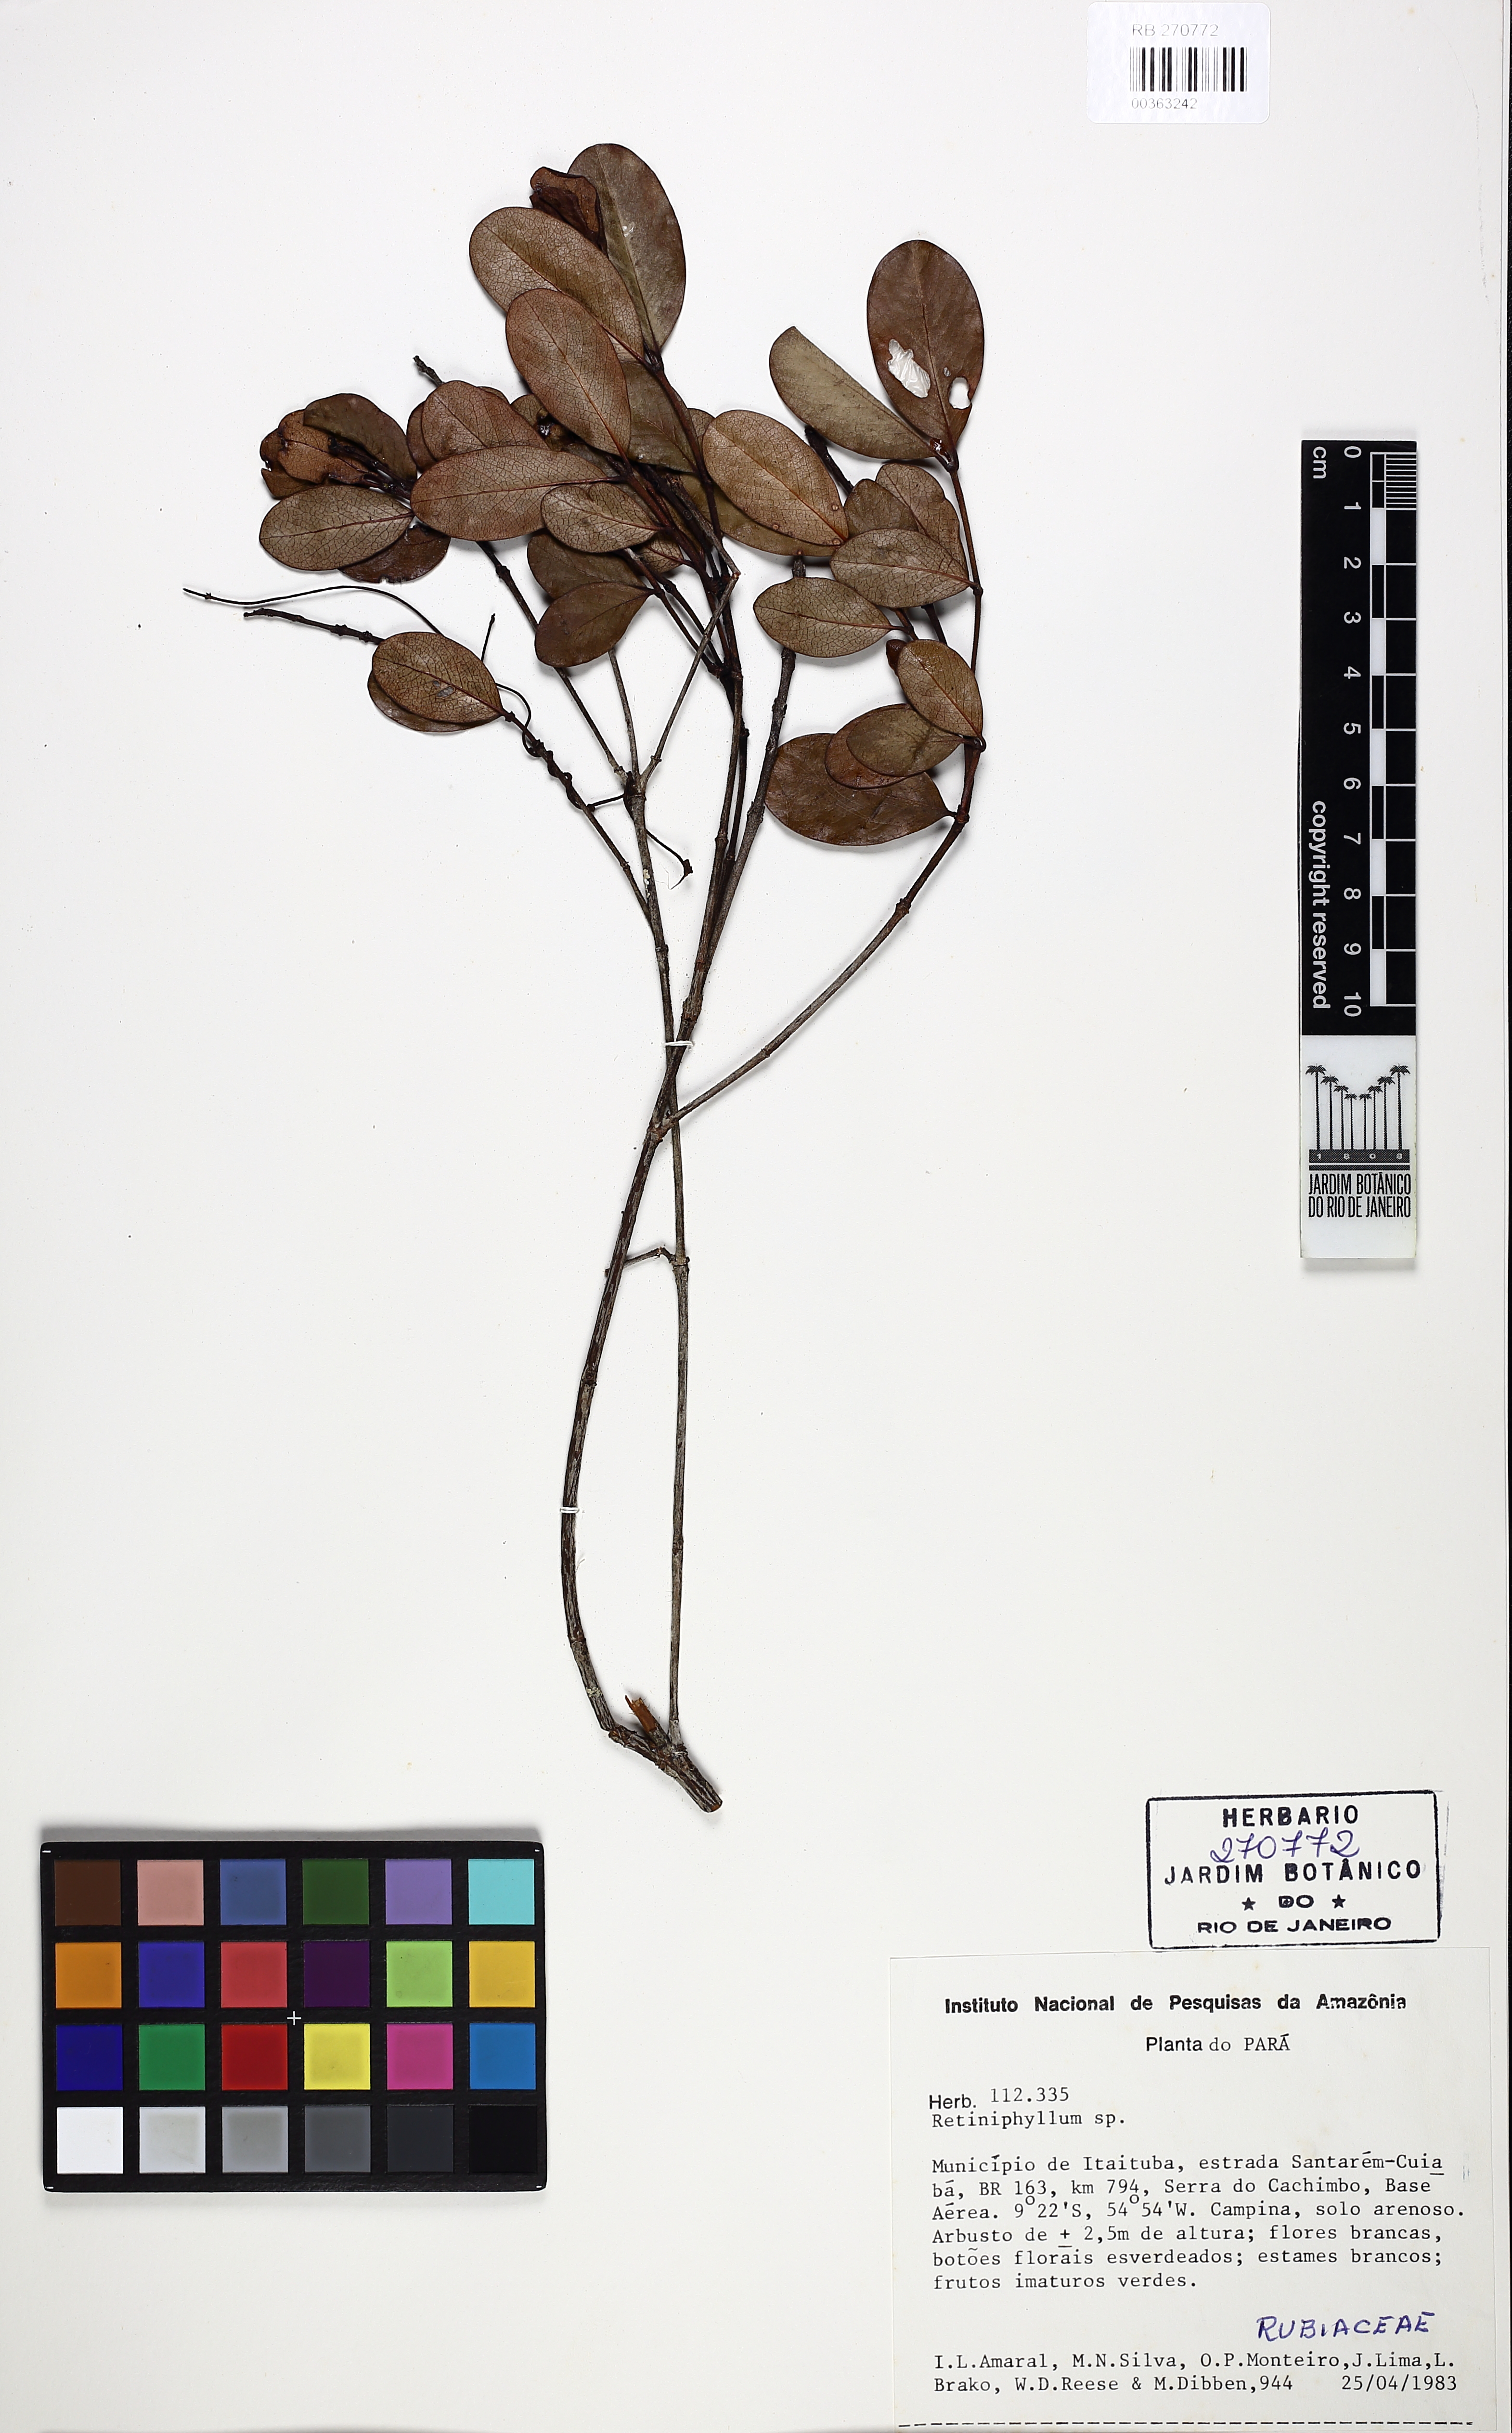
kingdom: Plantae
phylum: Tracheophyta
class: Magnoliopsida
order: Gentianales
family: Rubiaceae
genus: Retiniphyllum
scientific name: Retiniphyllum truncatum
